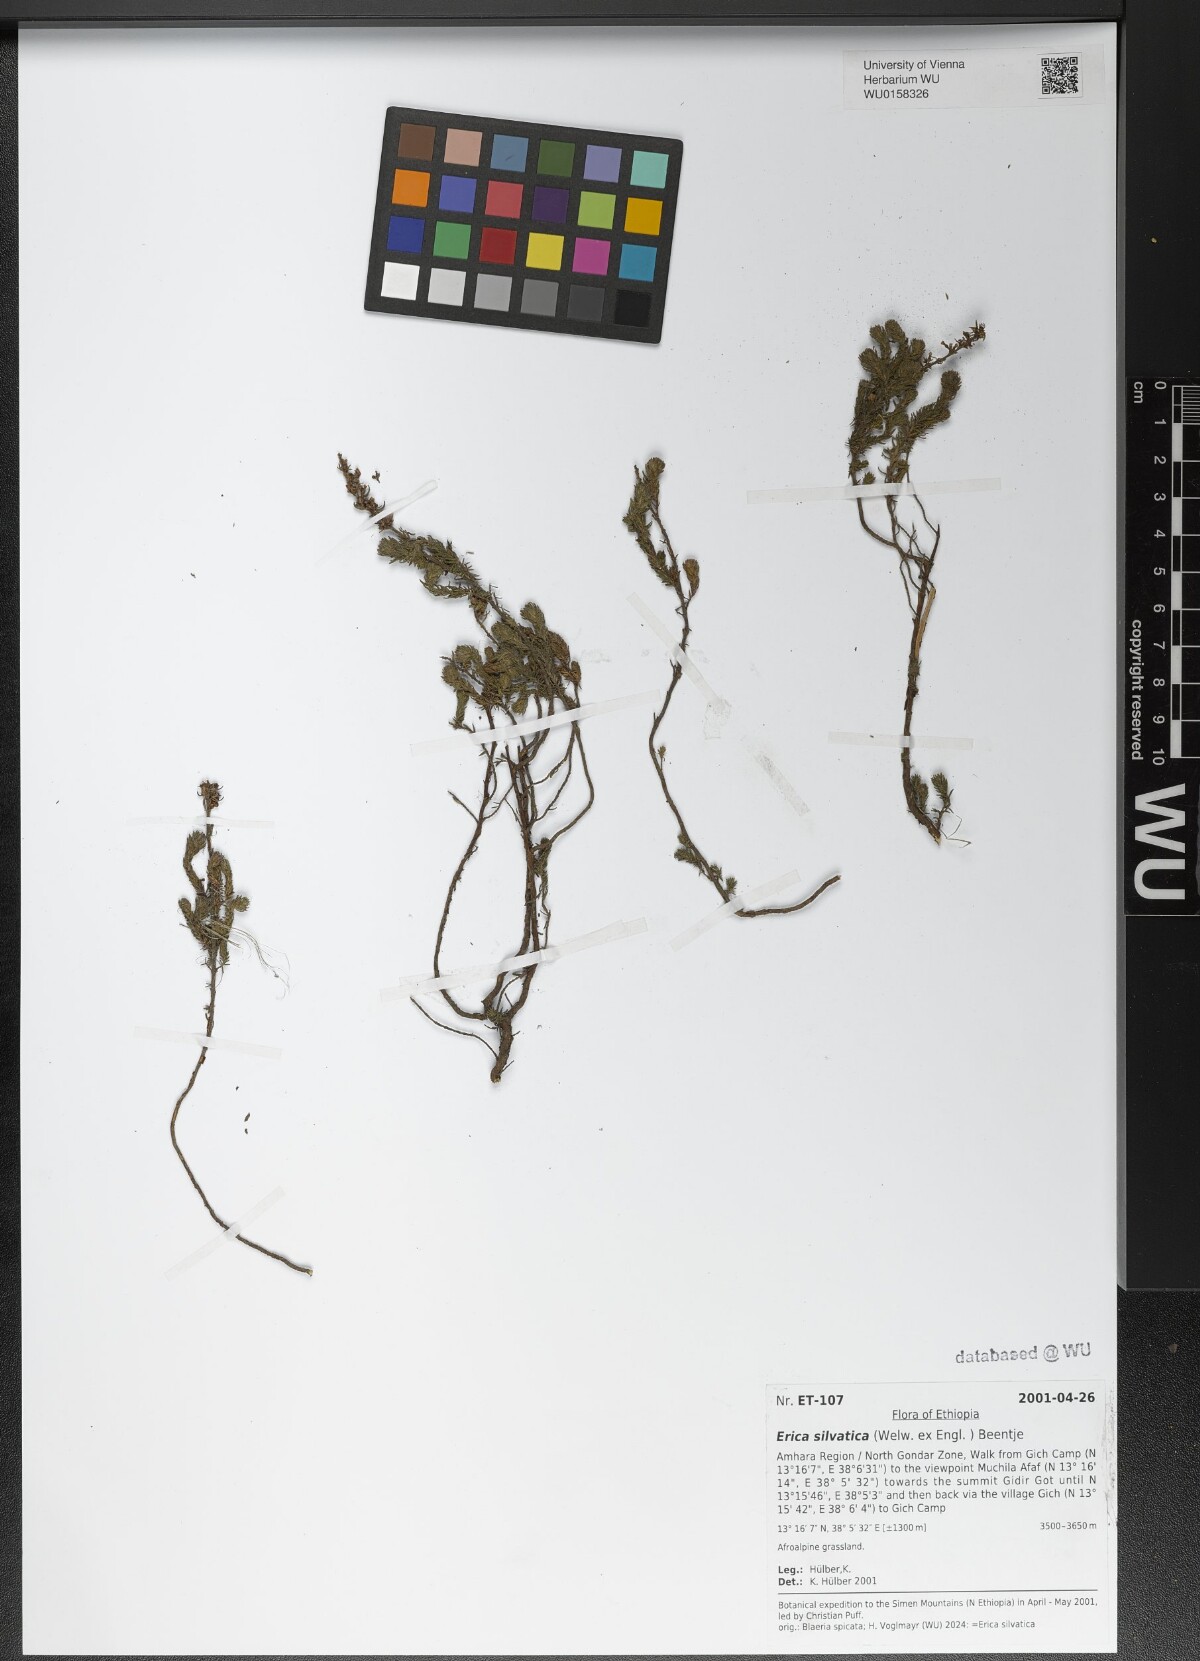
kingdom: Plantae
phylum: Tracheophyta
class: Magnoliopsida
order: Ericales
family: Ericaceae
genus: Erica
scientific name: Erica silvatica
